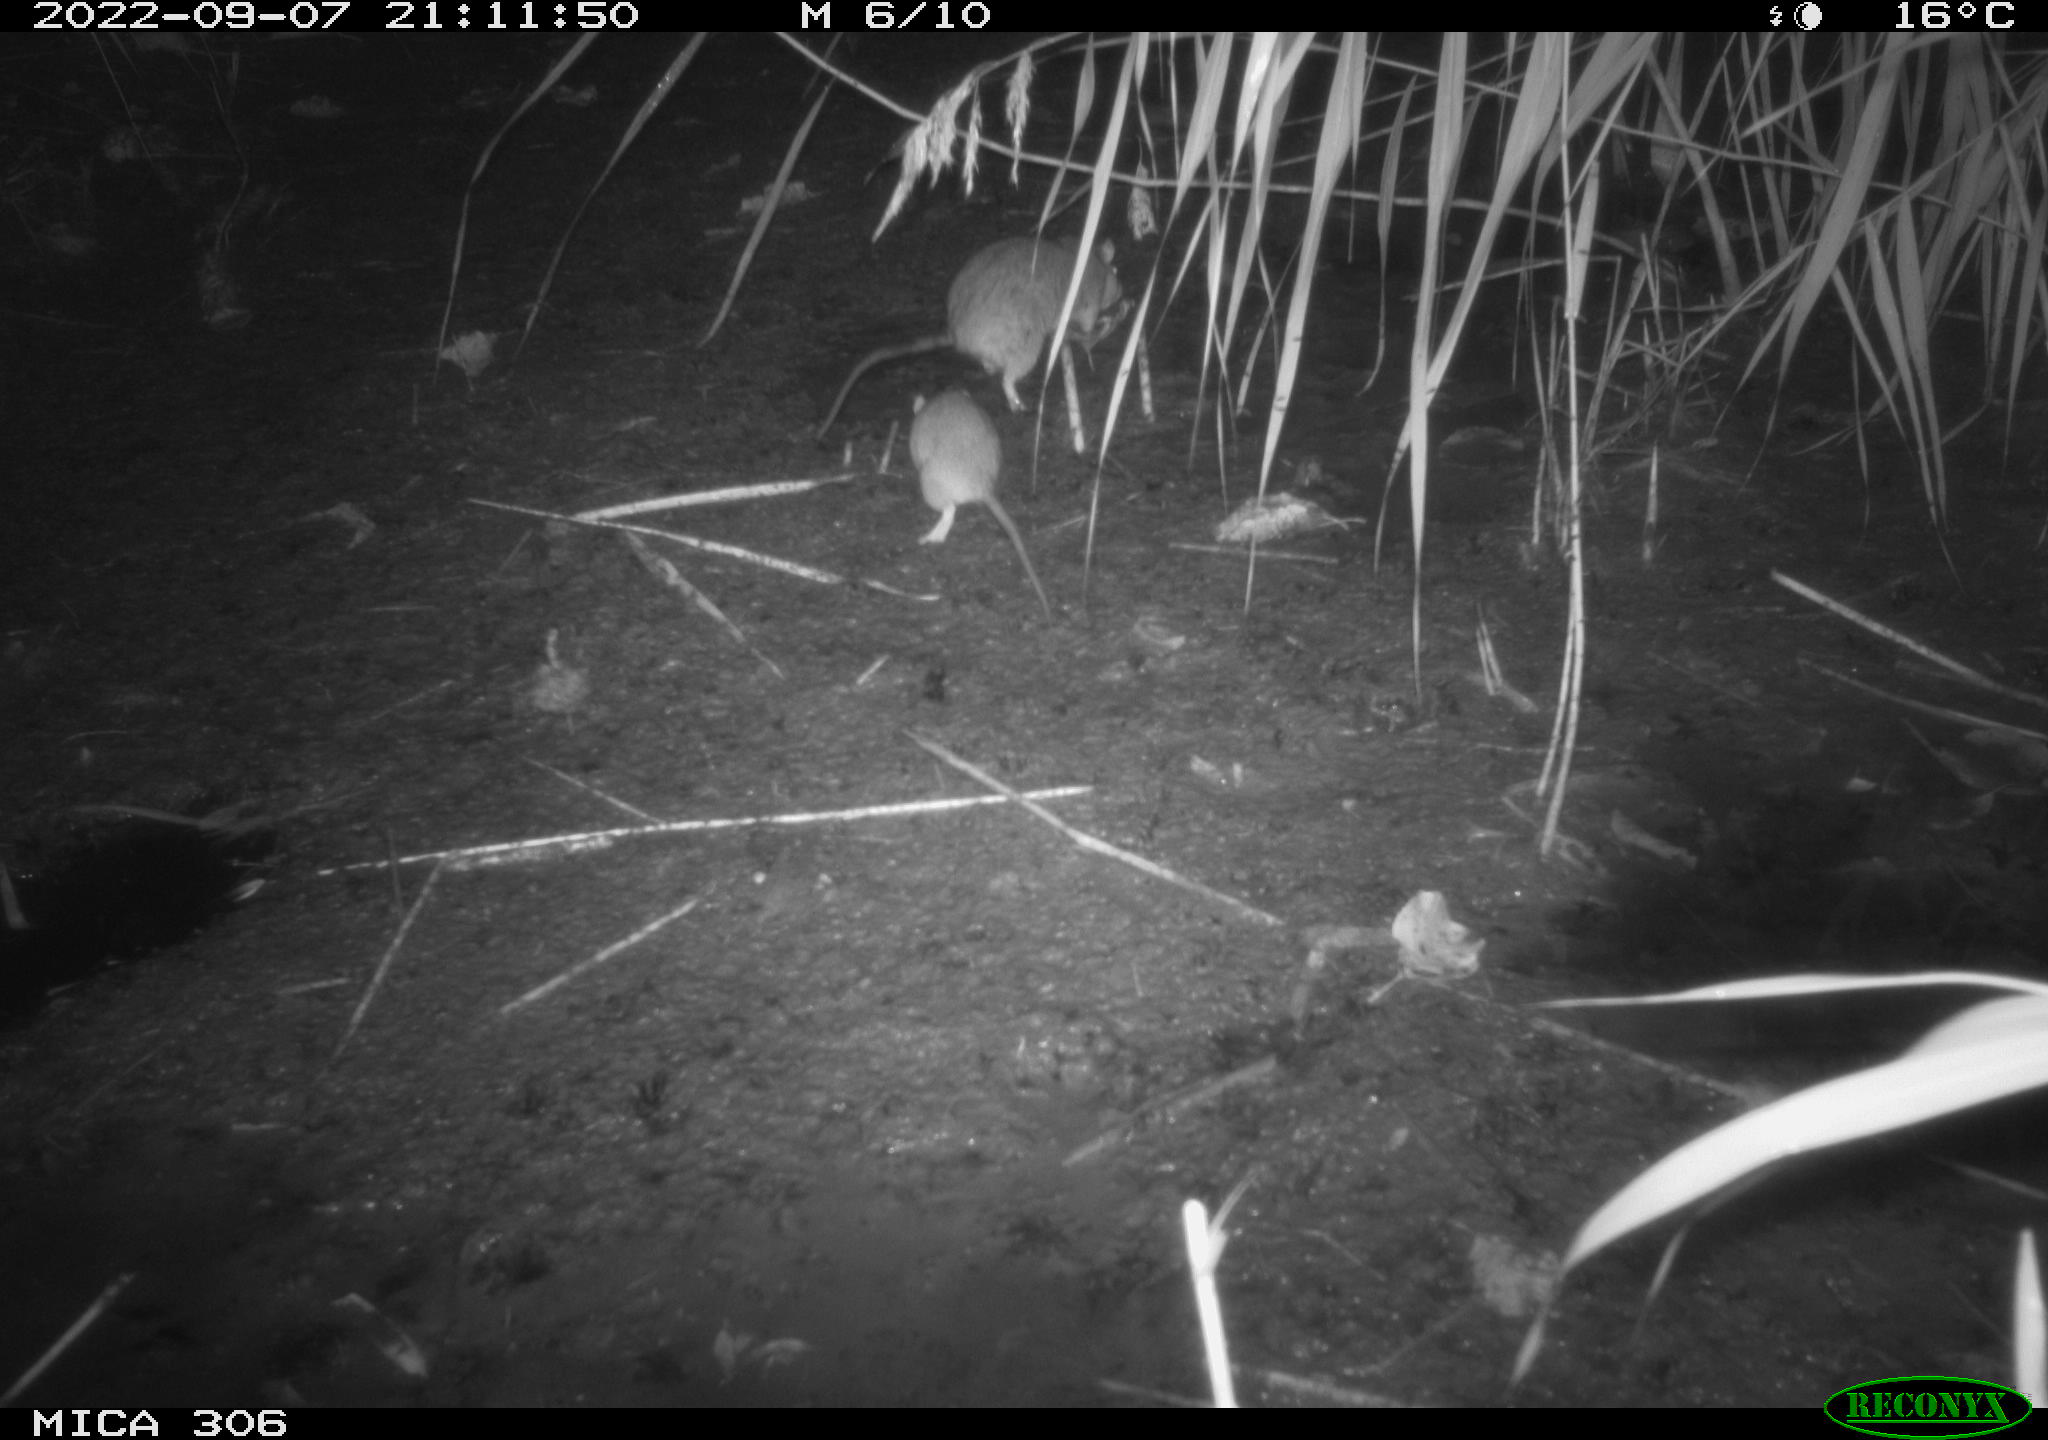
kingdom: Animalia
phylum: Chordata
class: Mammalia
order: Rodentia
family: Muridae
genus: Rattus
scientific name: Rattus norvegicus
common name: Brown rat
